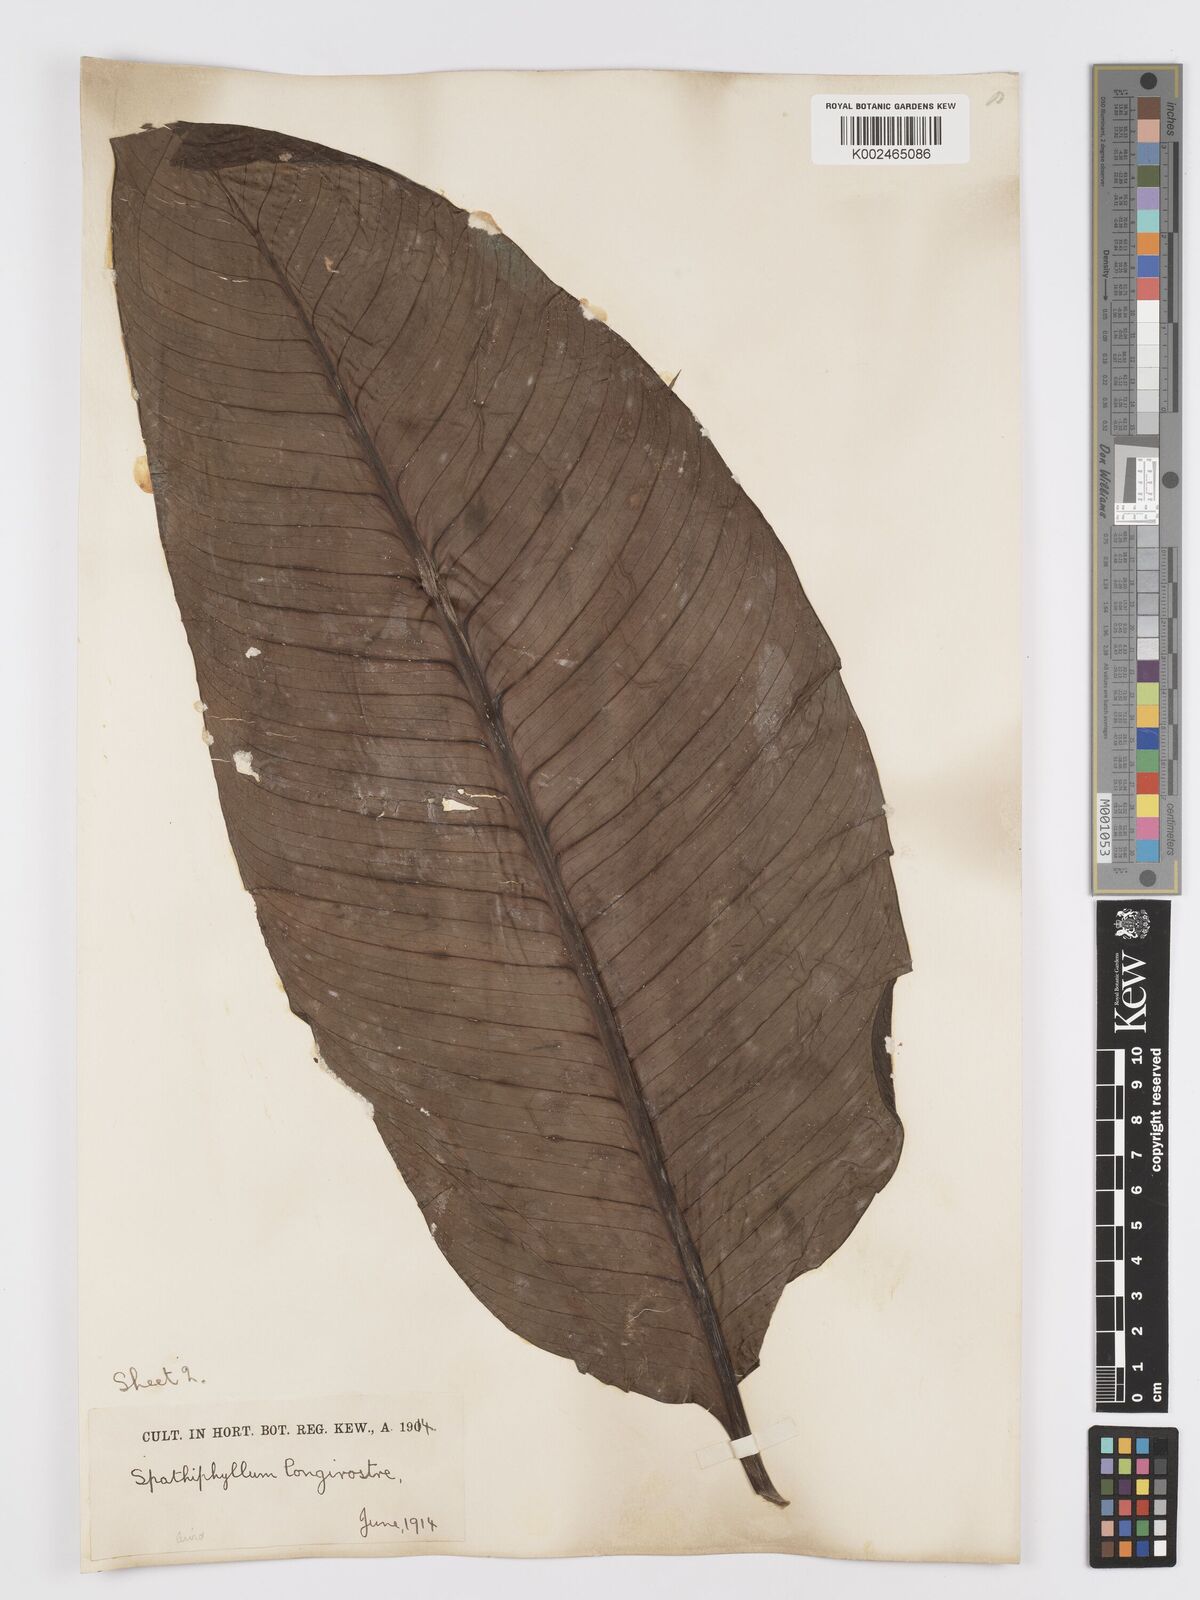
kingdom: Plantae
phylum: Tracheophyta
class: Liliopsida
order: Alismatales
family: Araceae
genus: Spathiphyllum
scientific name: Spathiphyllum cochlearispathum
